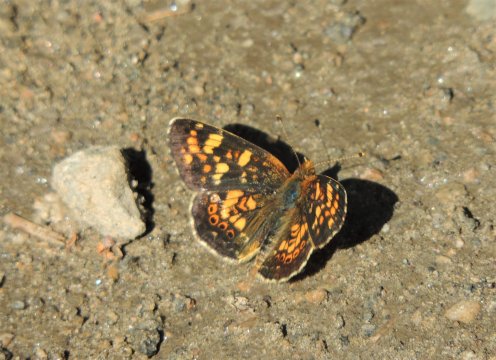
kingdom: Animalia
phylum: Arthropoda
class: Insecta
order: Lepidoptera
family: Nymphalidae
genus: Phyciodes
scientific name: Phyciodes tharos
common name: Field Crescent
